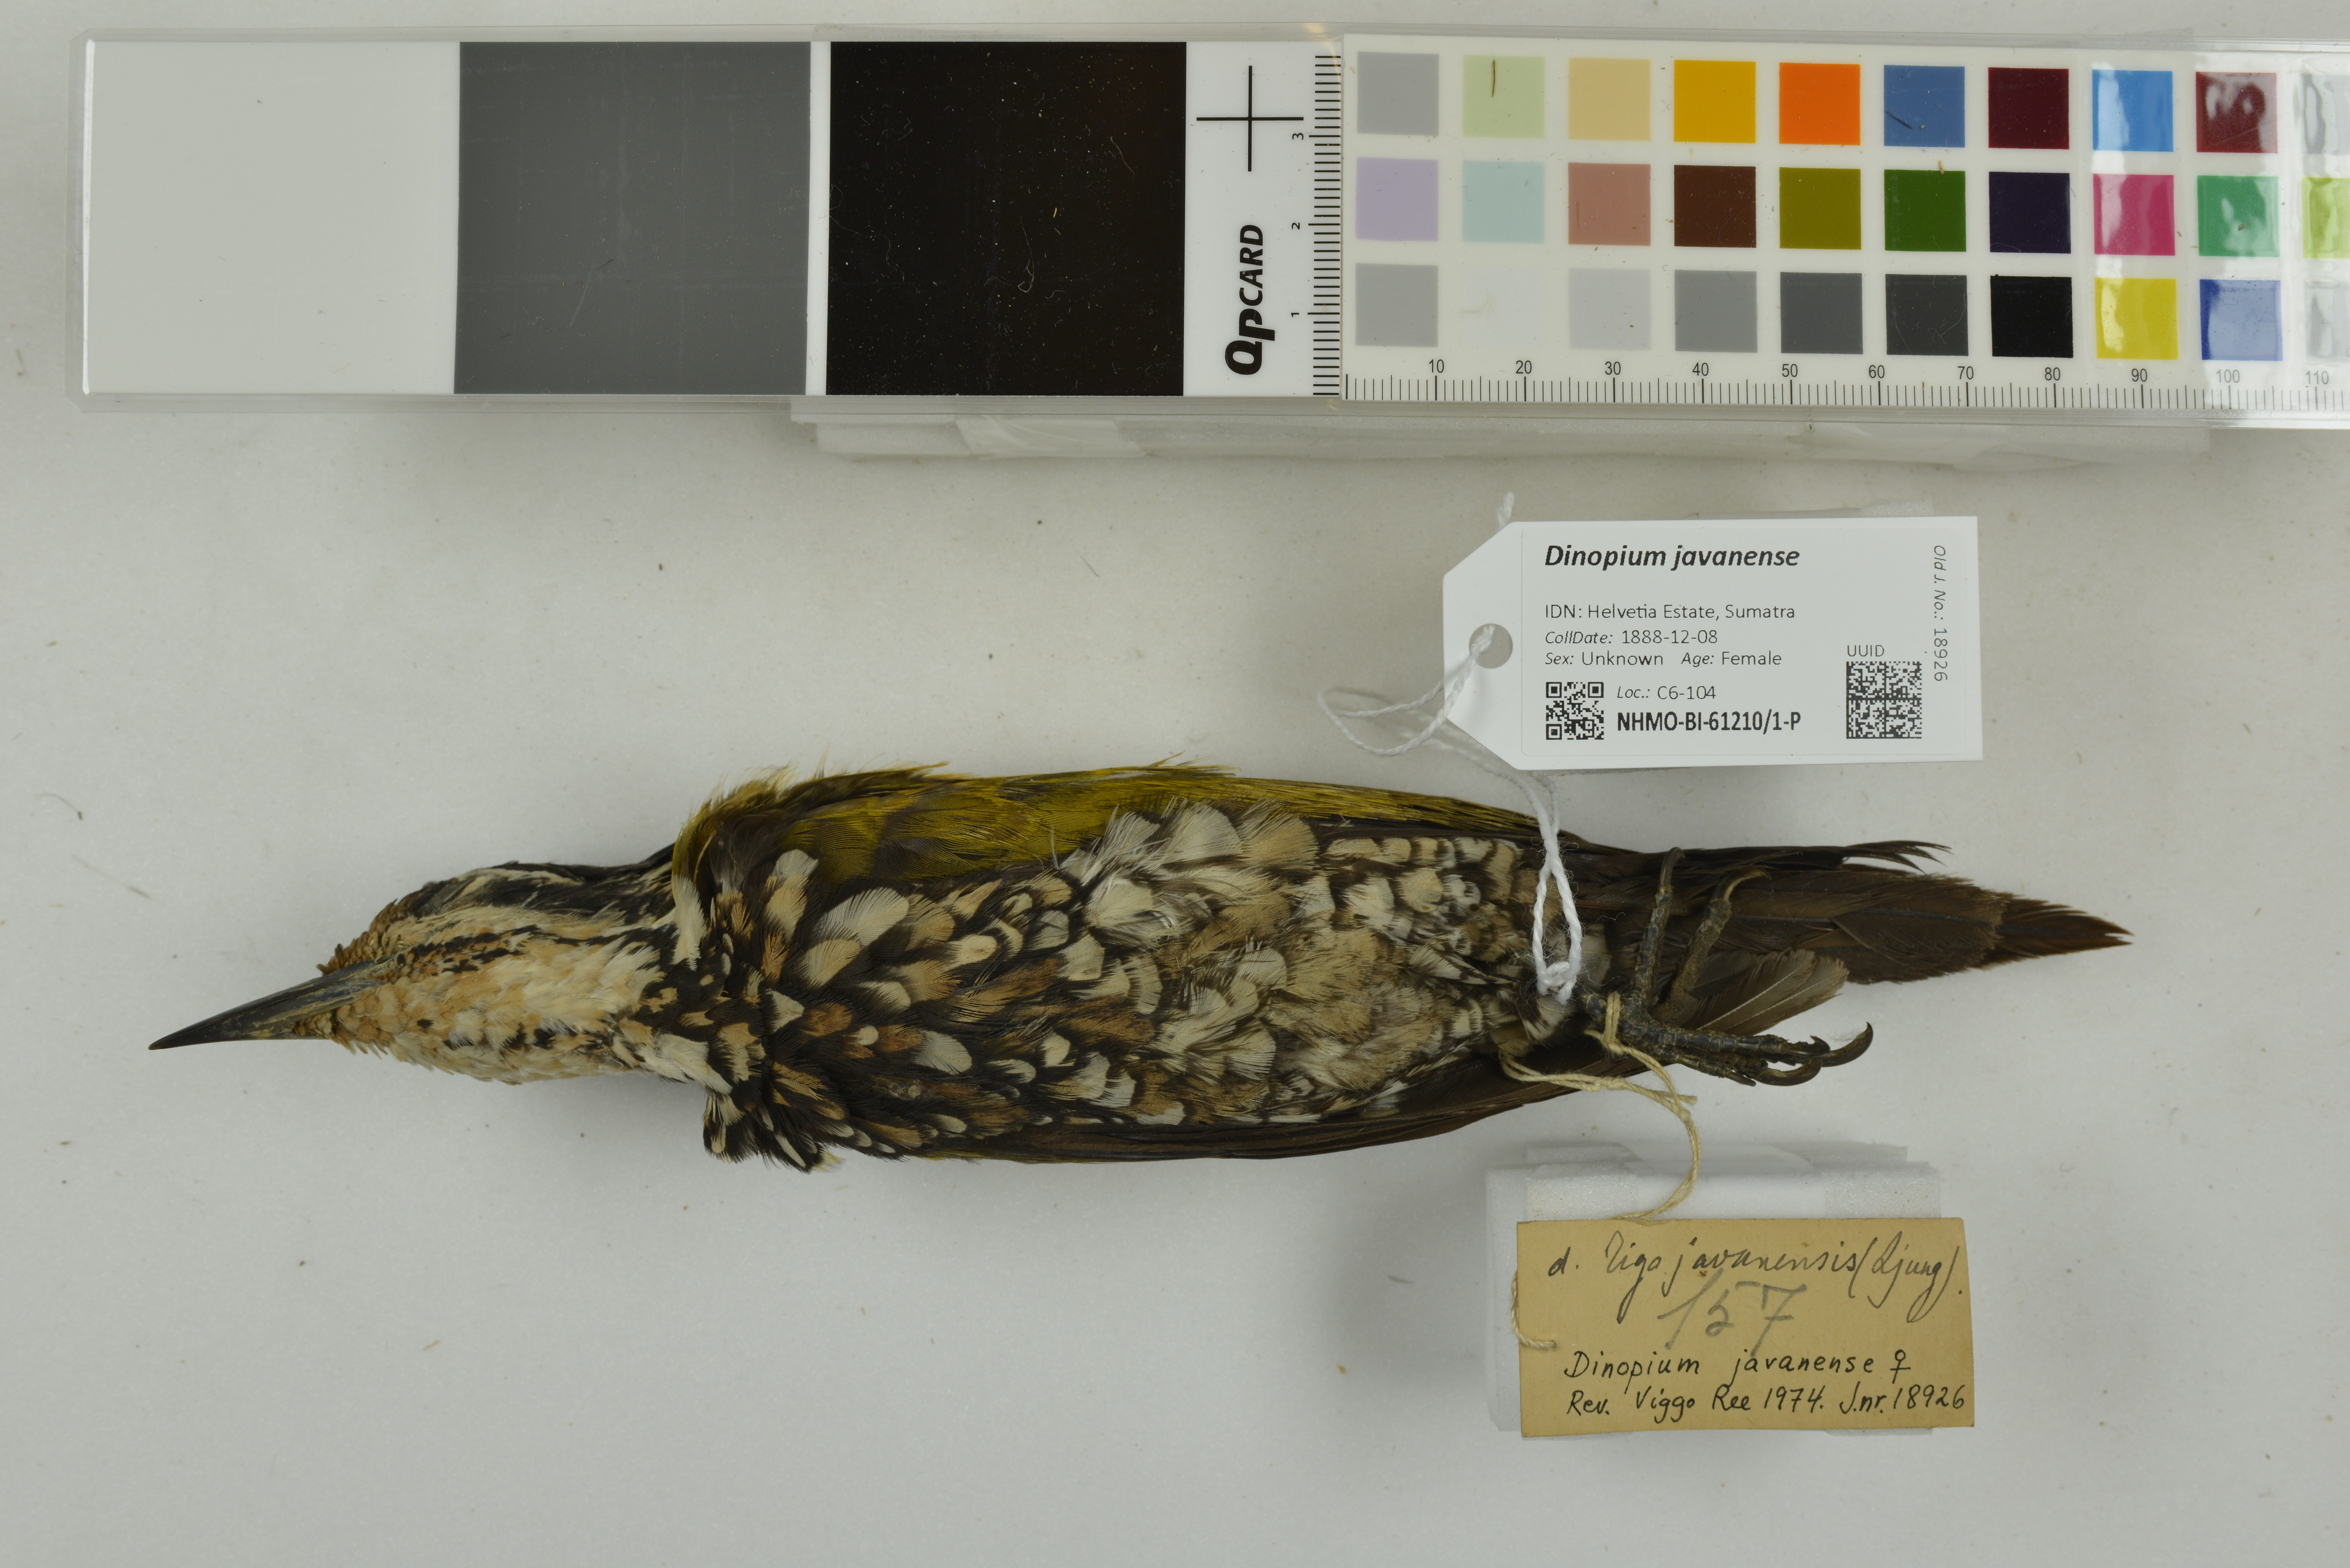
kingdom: Animalia
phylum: Chordata
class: Aves
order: Piciformes
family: Picidae
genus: Dinopium
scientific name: Dinopium javanense
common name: Common flameback
